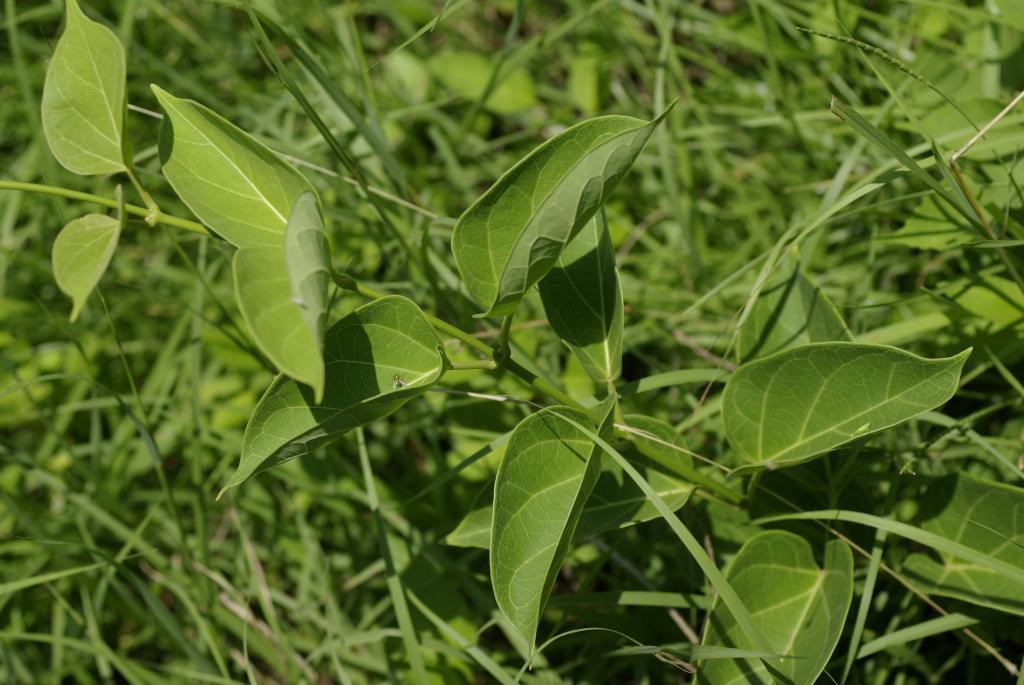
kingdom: Plantae
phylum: Tracheophyta
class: Magnoliopsida
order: Gentianales
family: Apocynaceae
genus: Stephanotis
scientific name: Stephanotis volubilis
